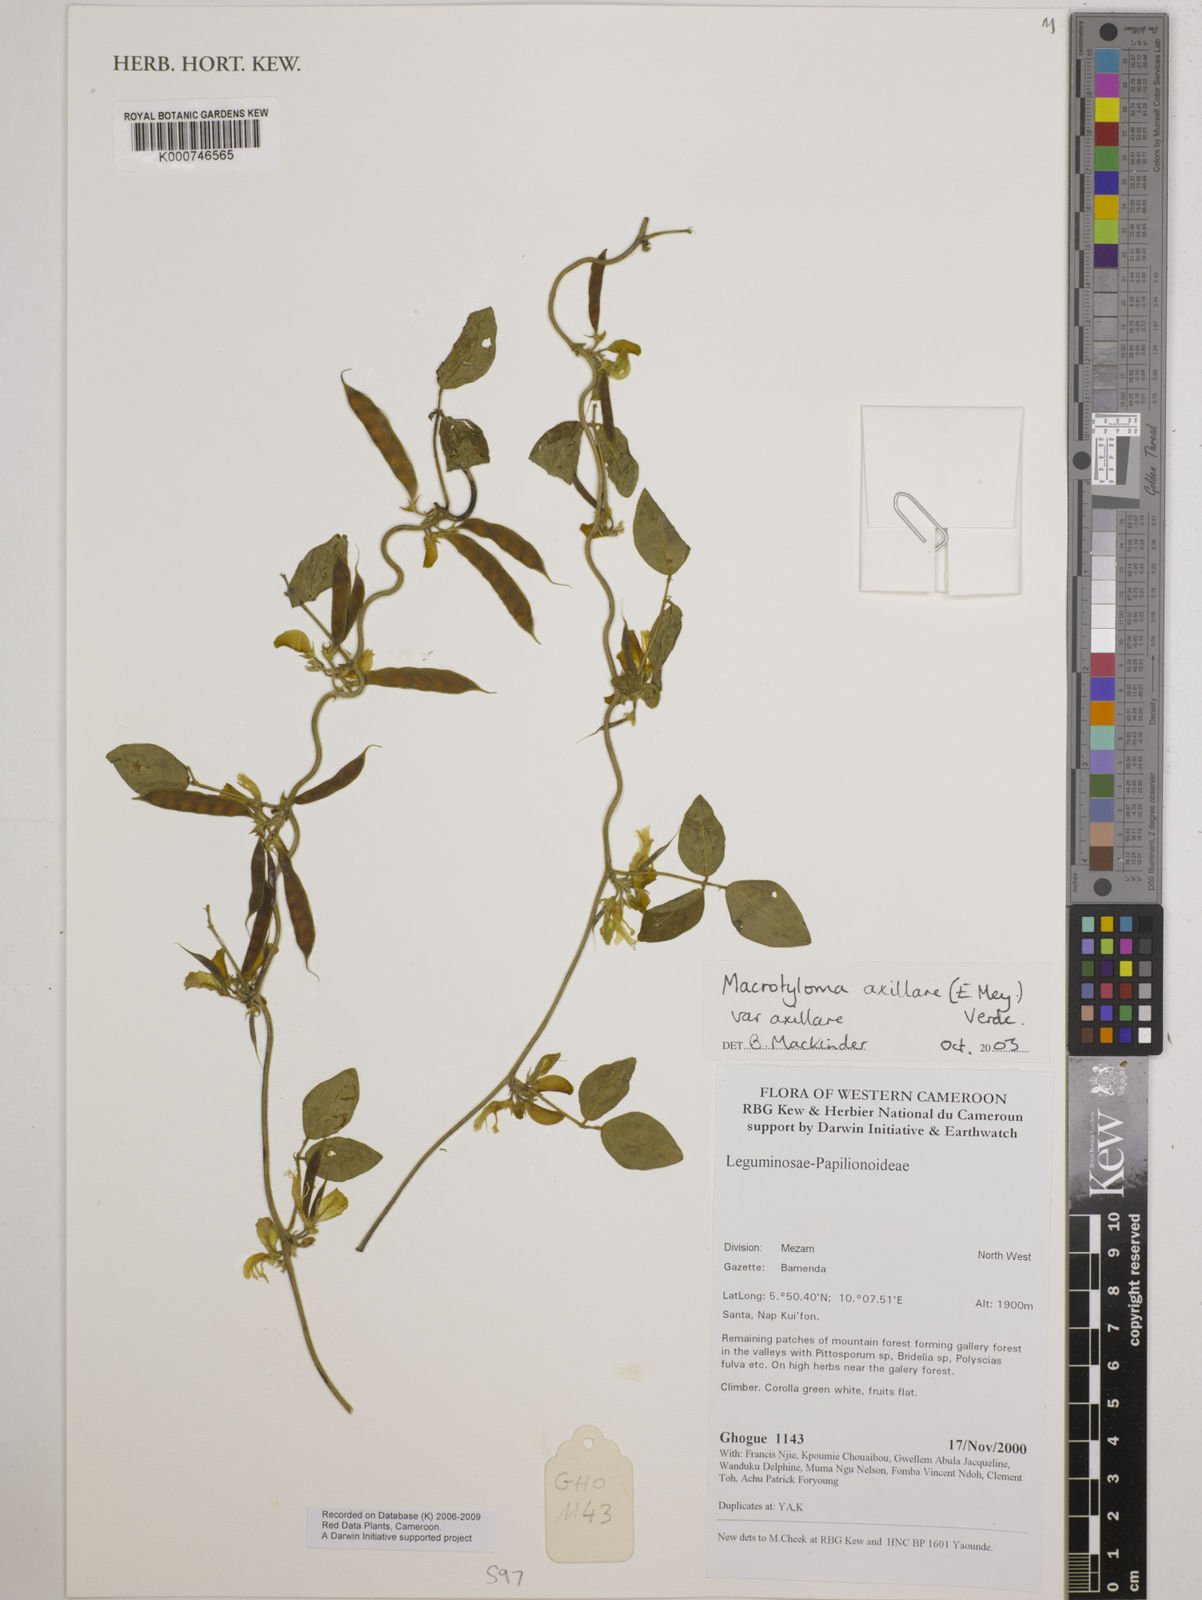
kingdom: Plantae
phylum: Tracheophyta
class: Magnoliopsida
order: Fabales
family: Fabaceae
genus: Macrotyloma
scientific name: Macrotyloma axillare
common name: Perennial horsegram
